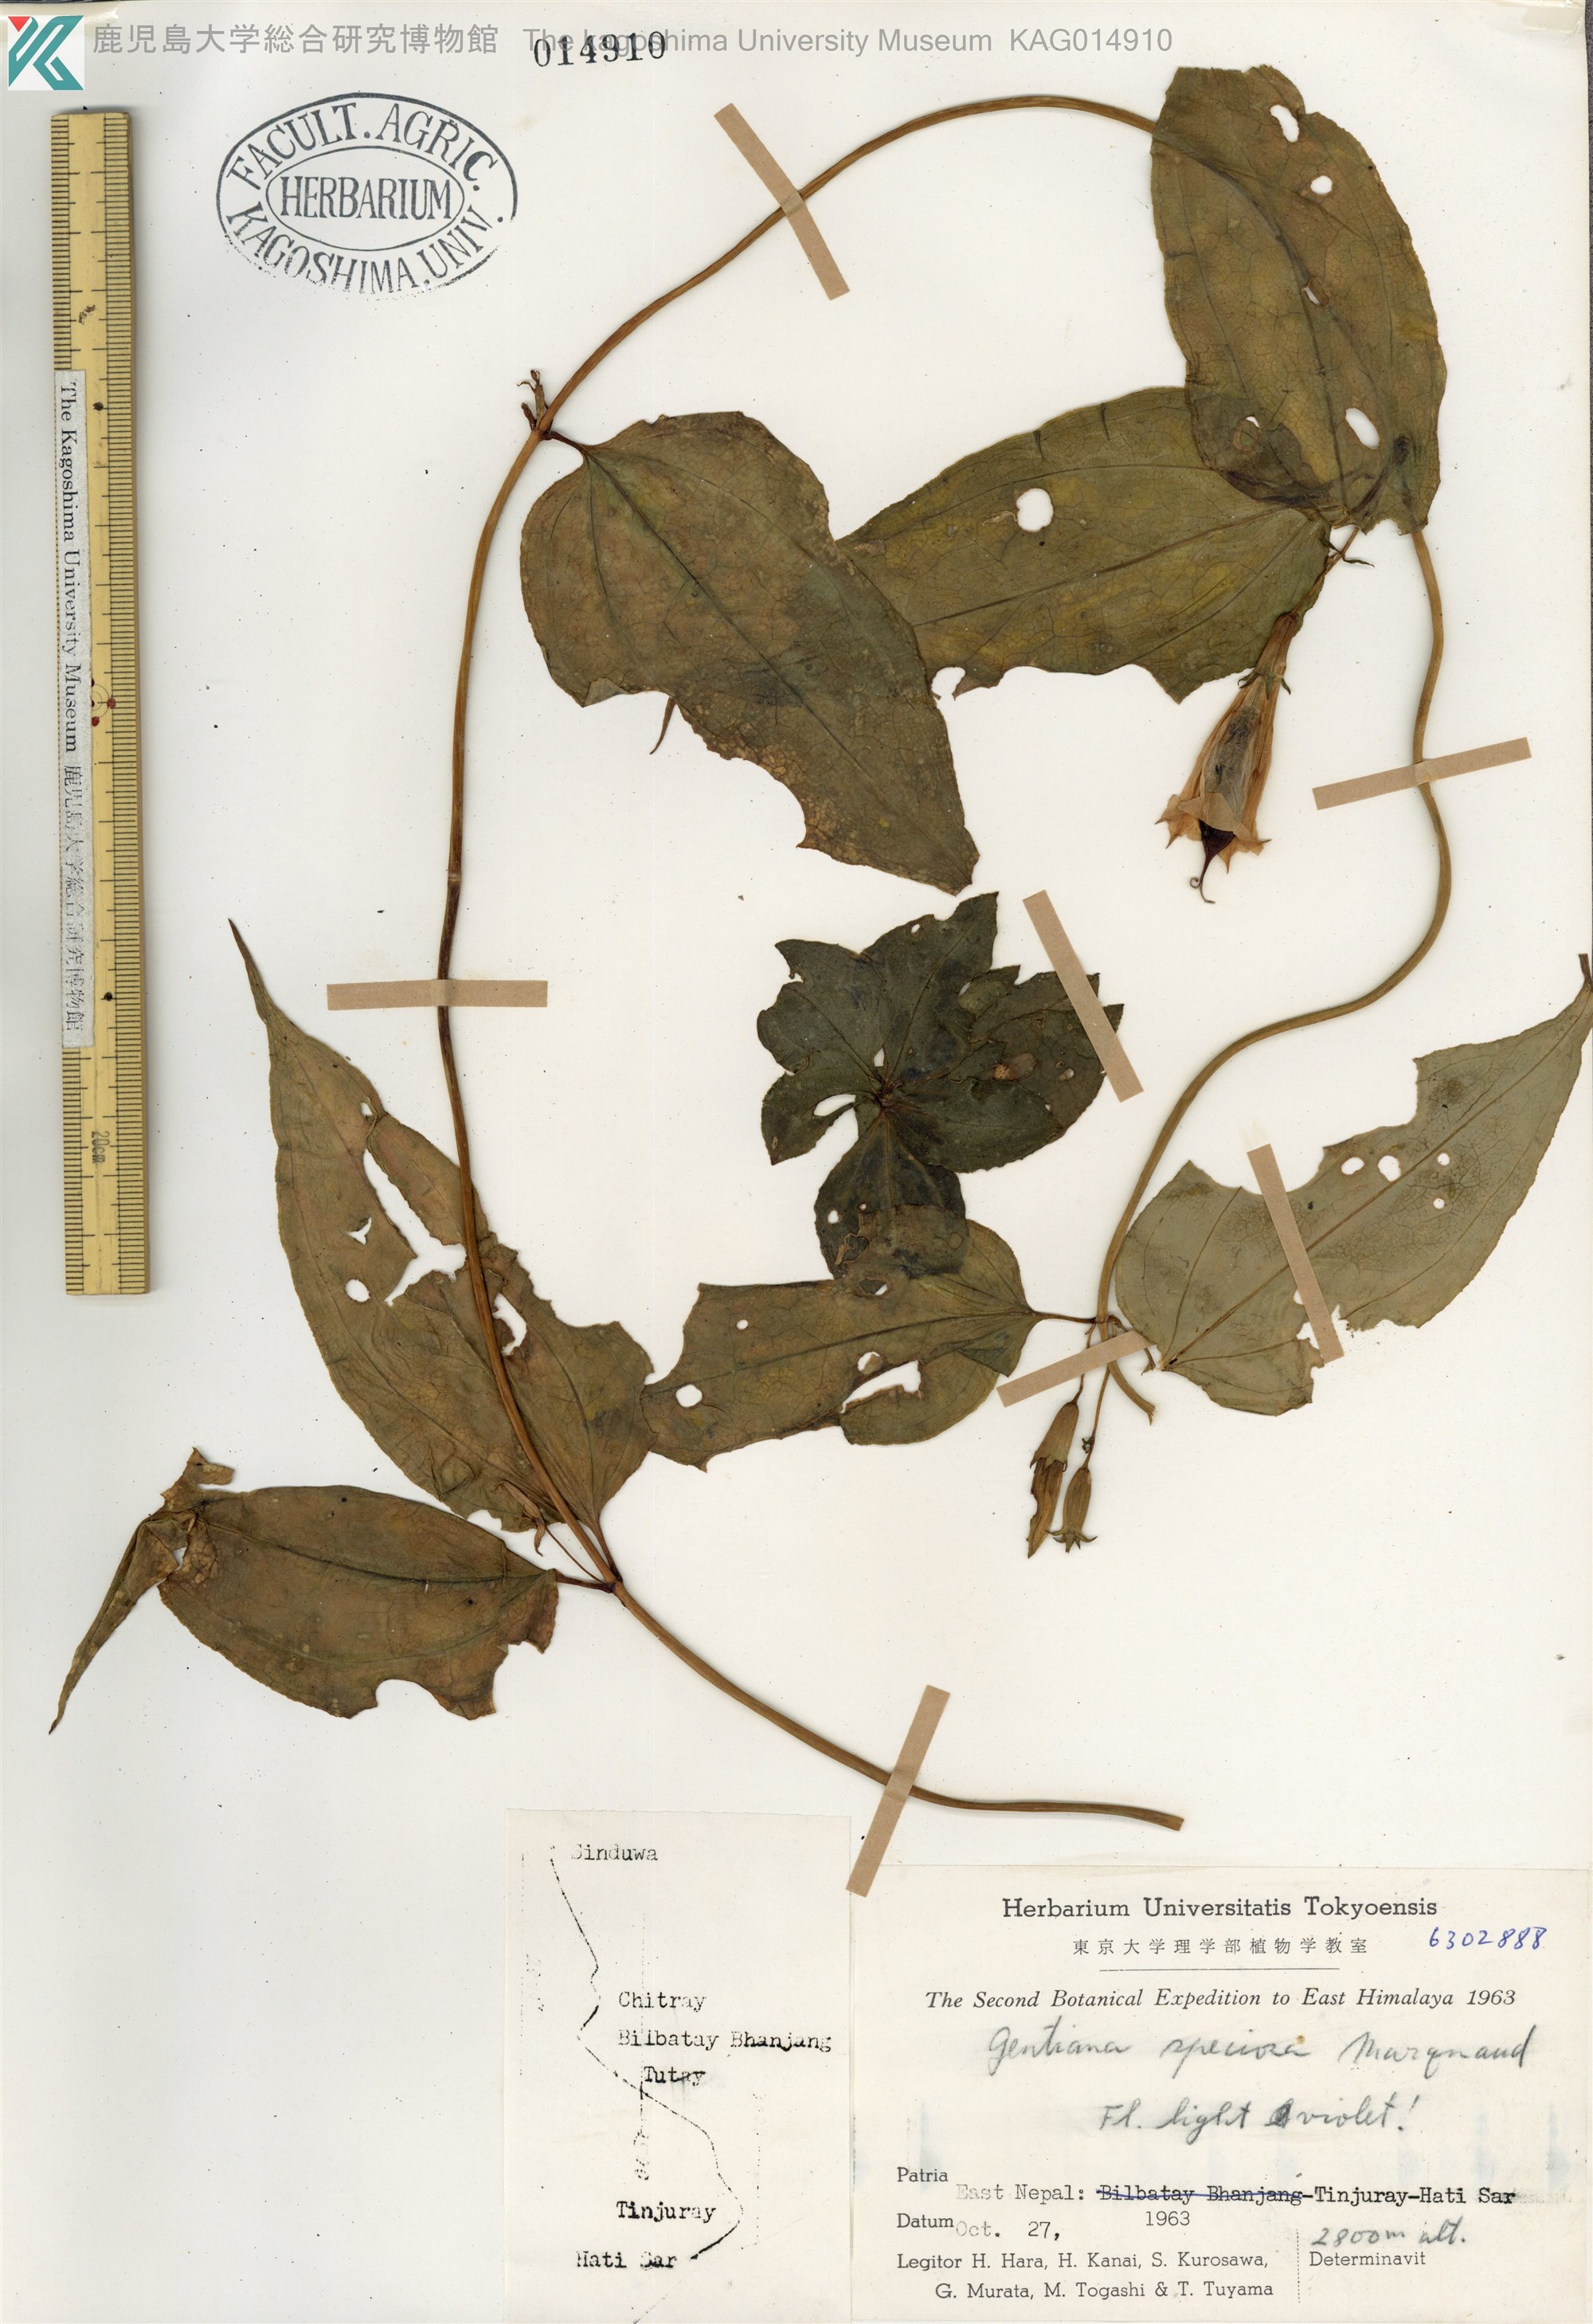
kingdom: Plantae
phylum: Tracheophyta
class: Magnoliopsida
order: Gentianales
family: Gentianaceae
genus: Crawfurdia
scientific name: Crawfurdia speciosa
